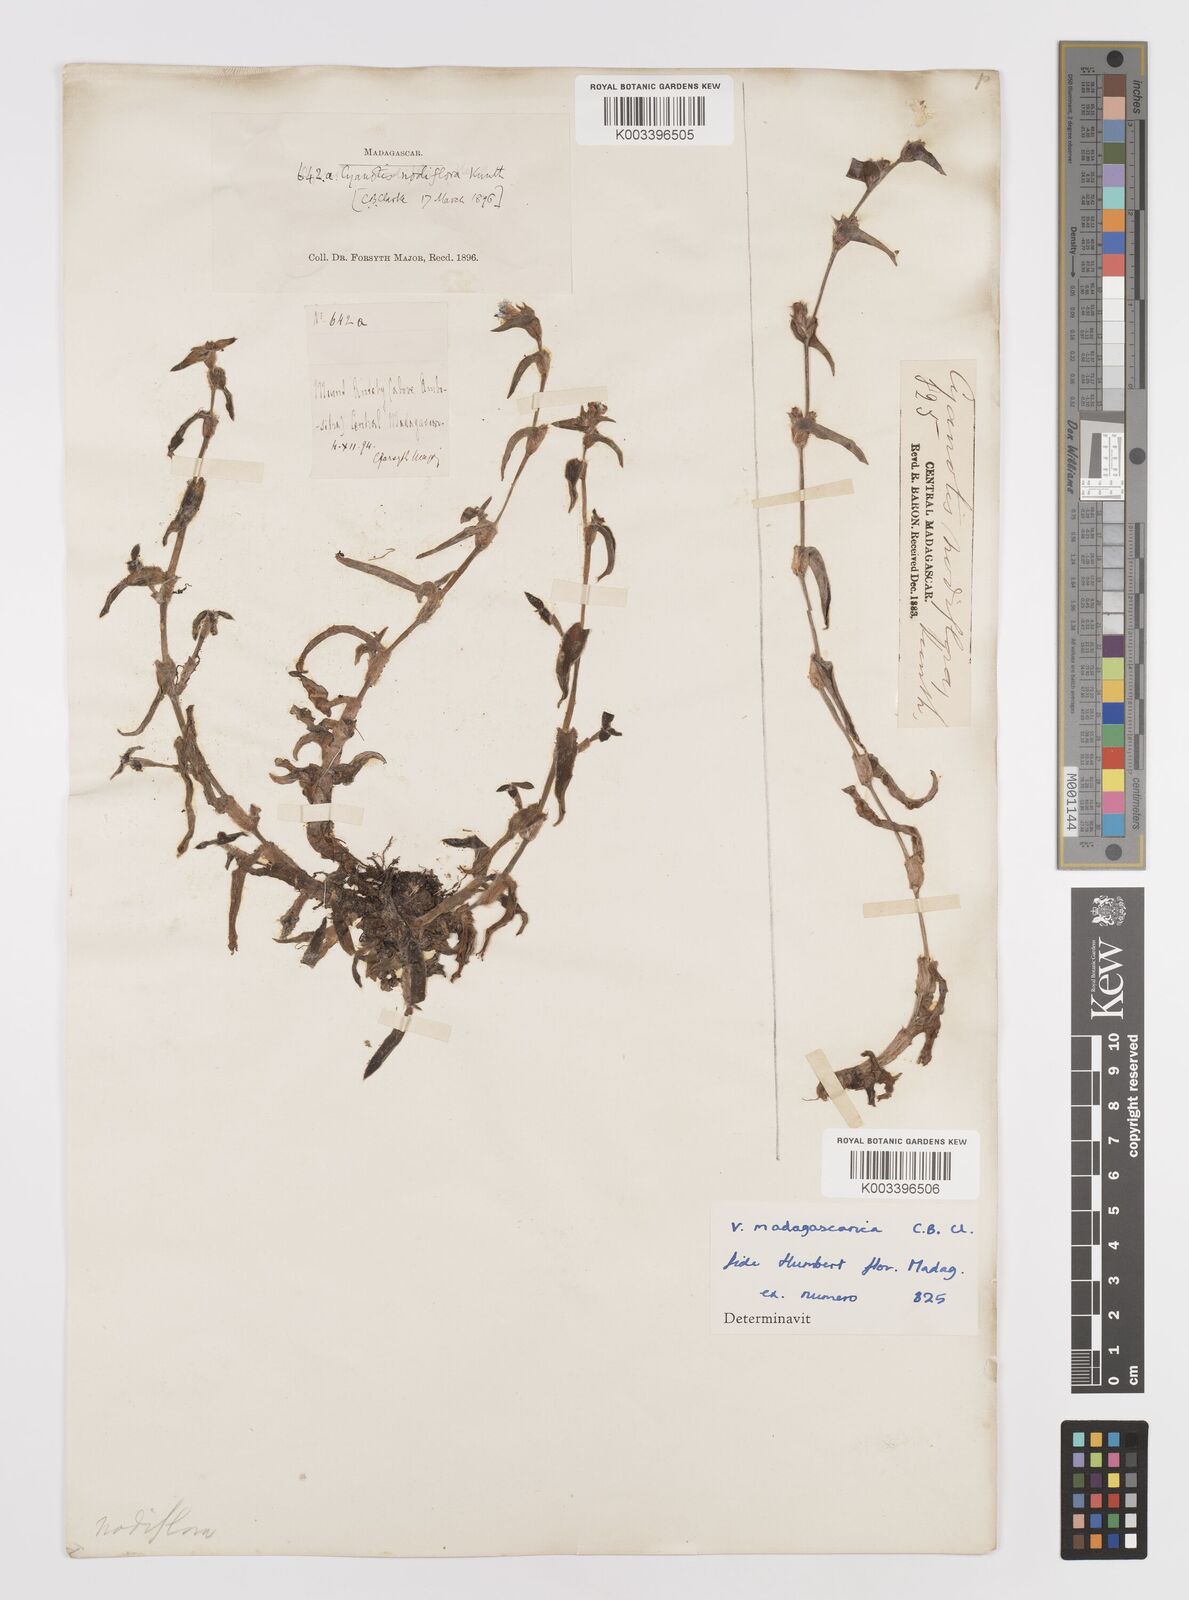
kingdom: Plantae
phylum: Tracheophyta
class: Liliopsida
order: Commelinales
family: Commelinaceae
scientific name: Commelinaceae
